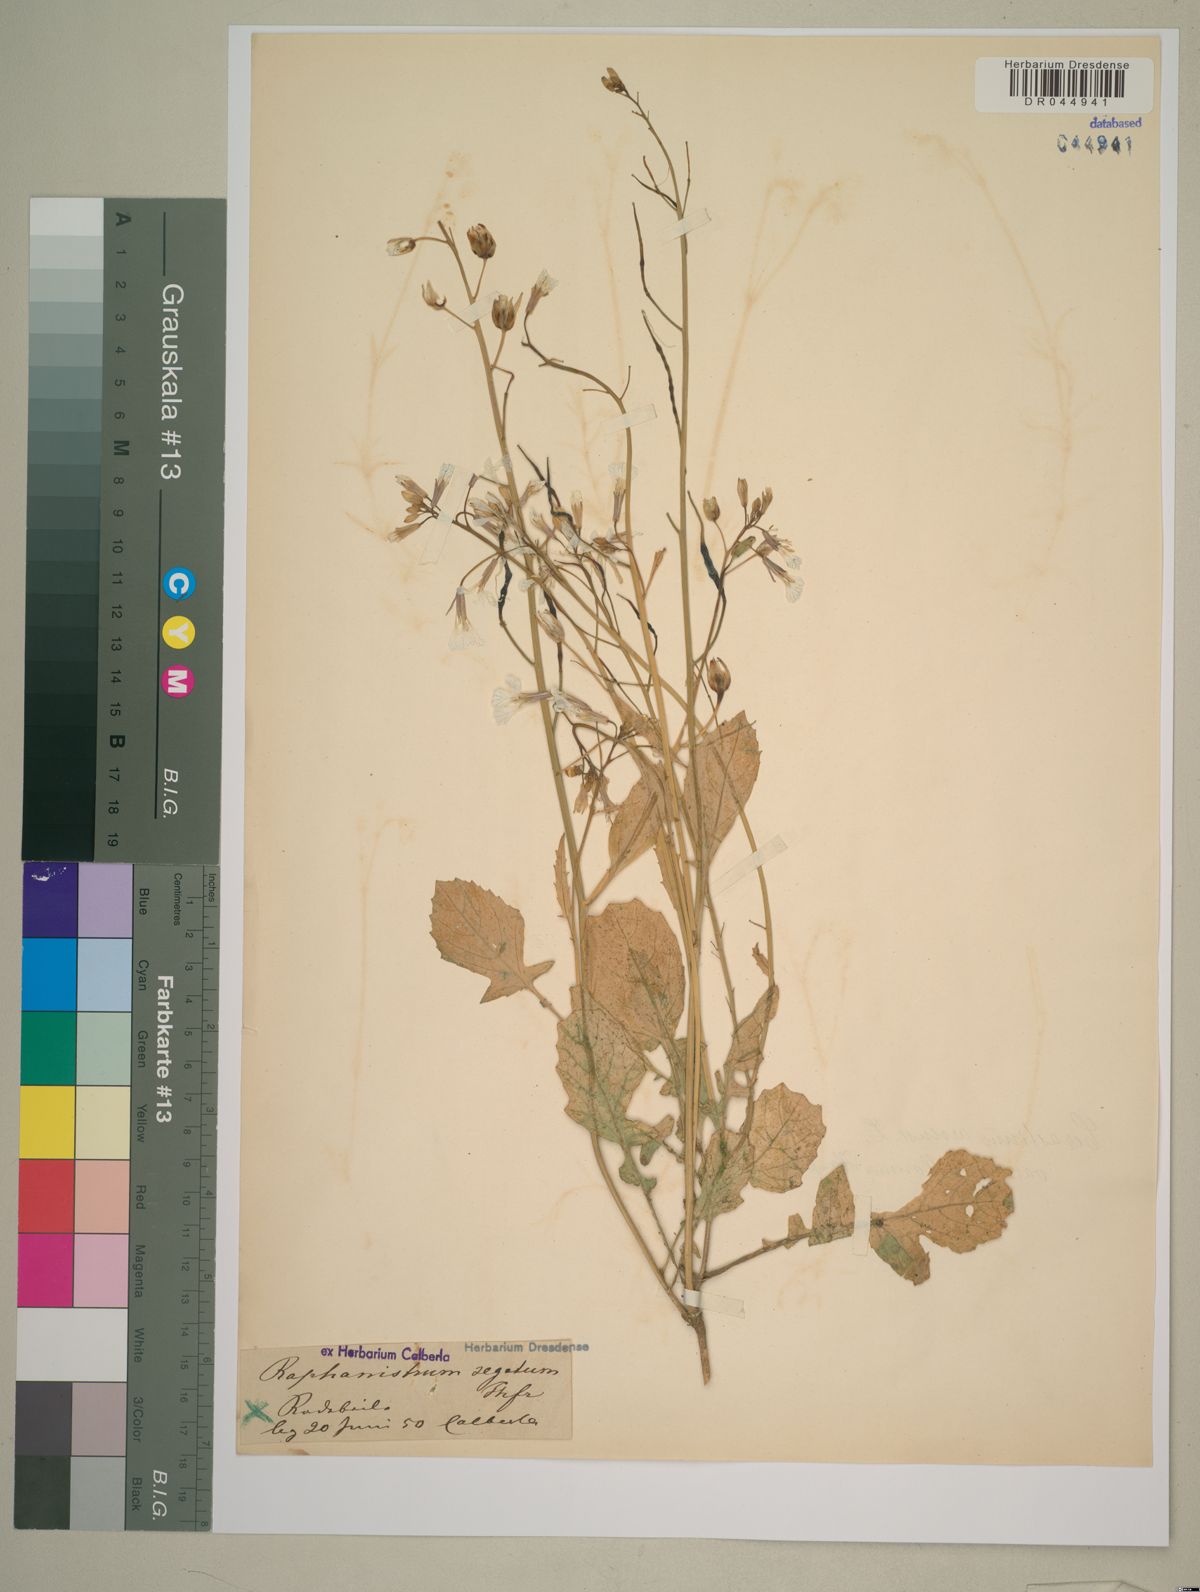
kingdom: Plantae
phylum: Tracheophyta
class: Magnoliopsida
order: Brassicales
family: Brassicaceae
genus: Raphanus
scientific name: Raphanus raphanistrum
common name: Wild radish
